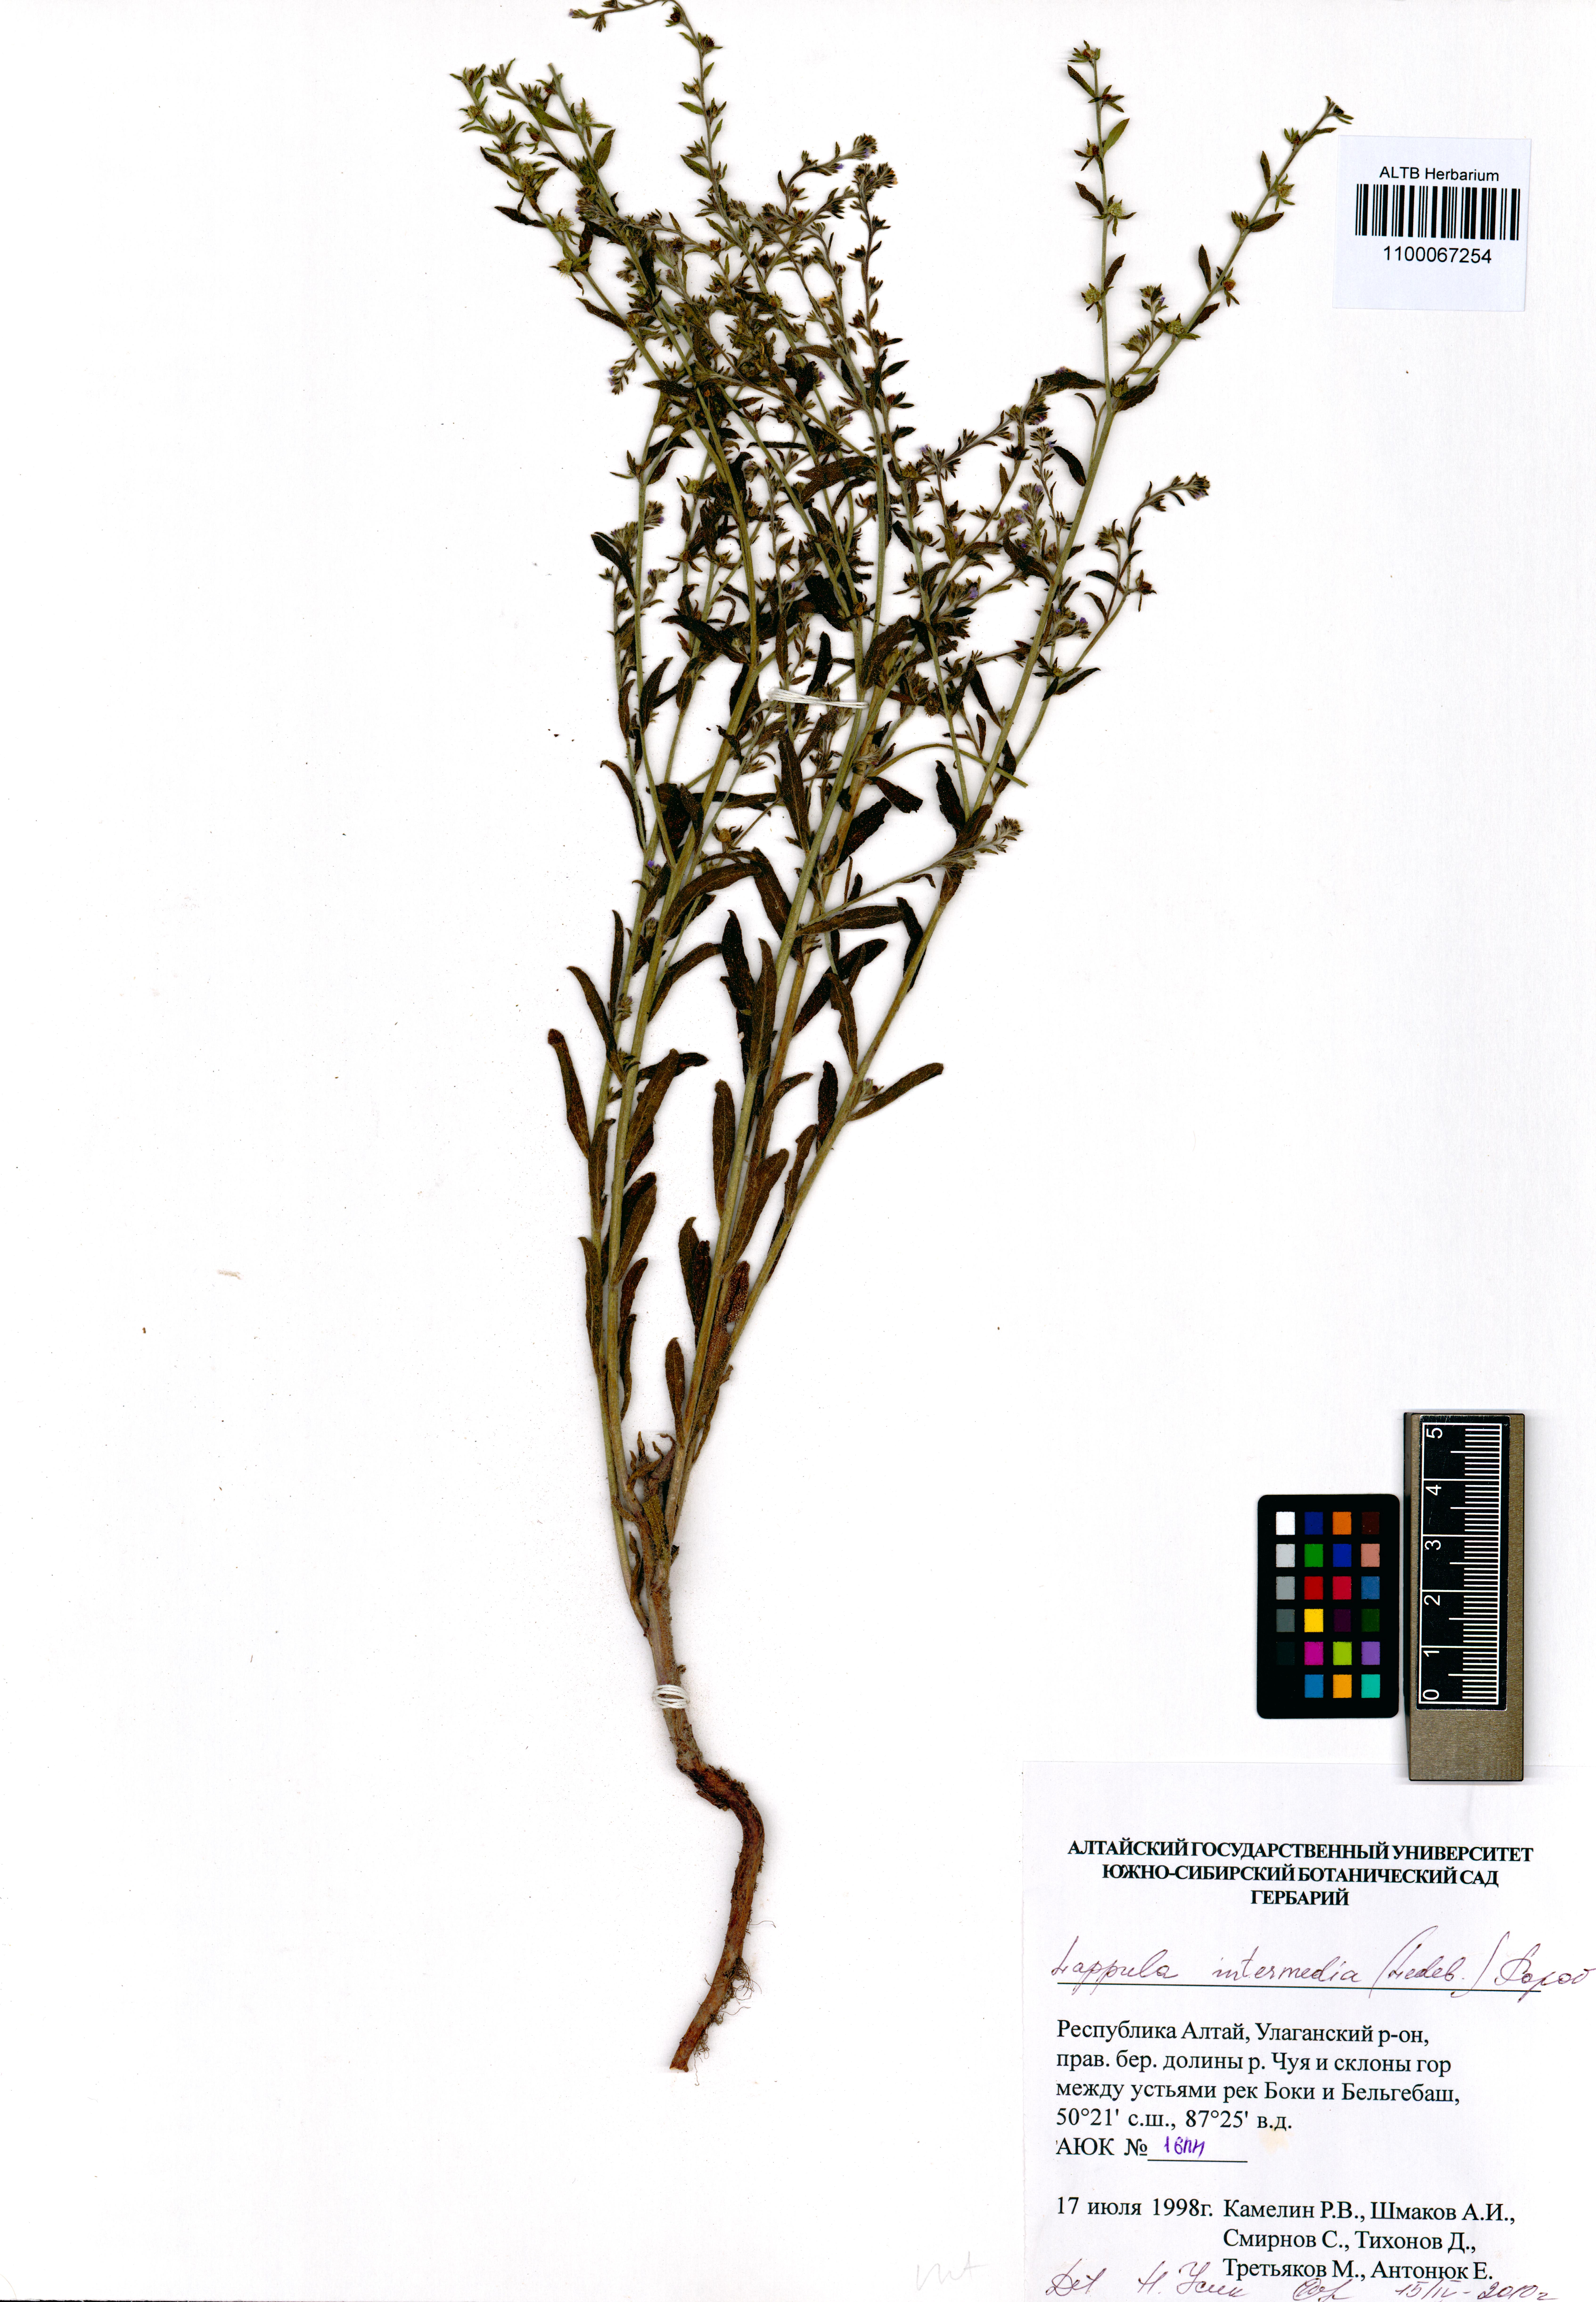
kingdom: Plantae
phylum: Tracheophyta
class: Magnoliopsida
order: Boraginales
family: Boraginaceae
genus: Lappula
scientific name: Lappula intermedia
